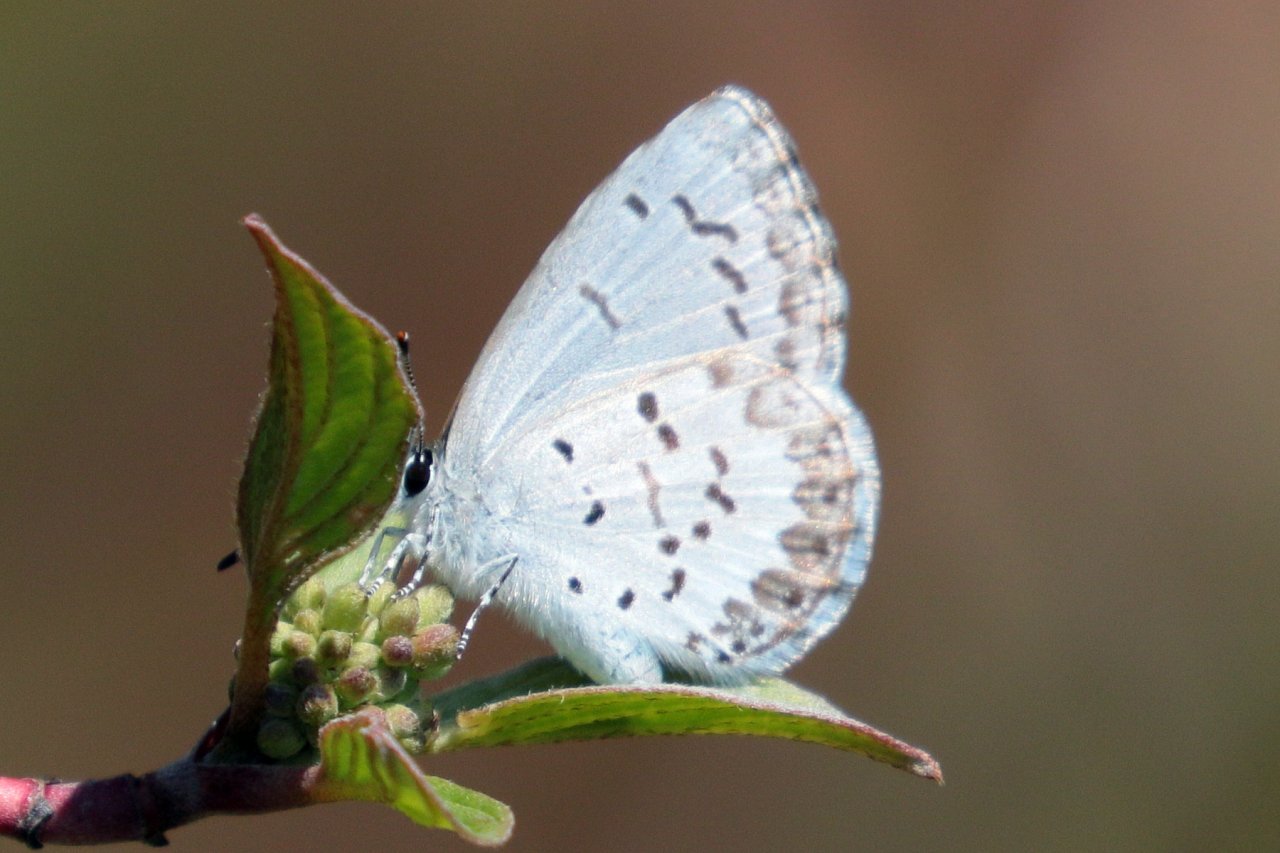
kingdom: Animalia
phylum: Arthropoda
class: Insecta
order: Lepidoptera
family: Lycaenidae
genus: Celastrina
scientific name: Celastrina lucia
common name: Northern Spring Azure
